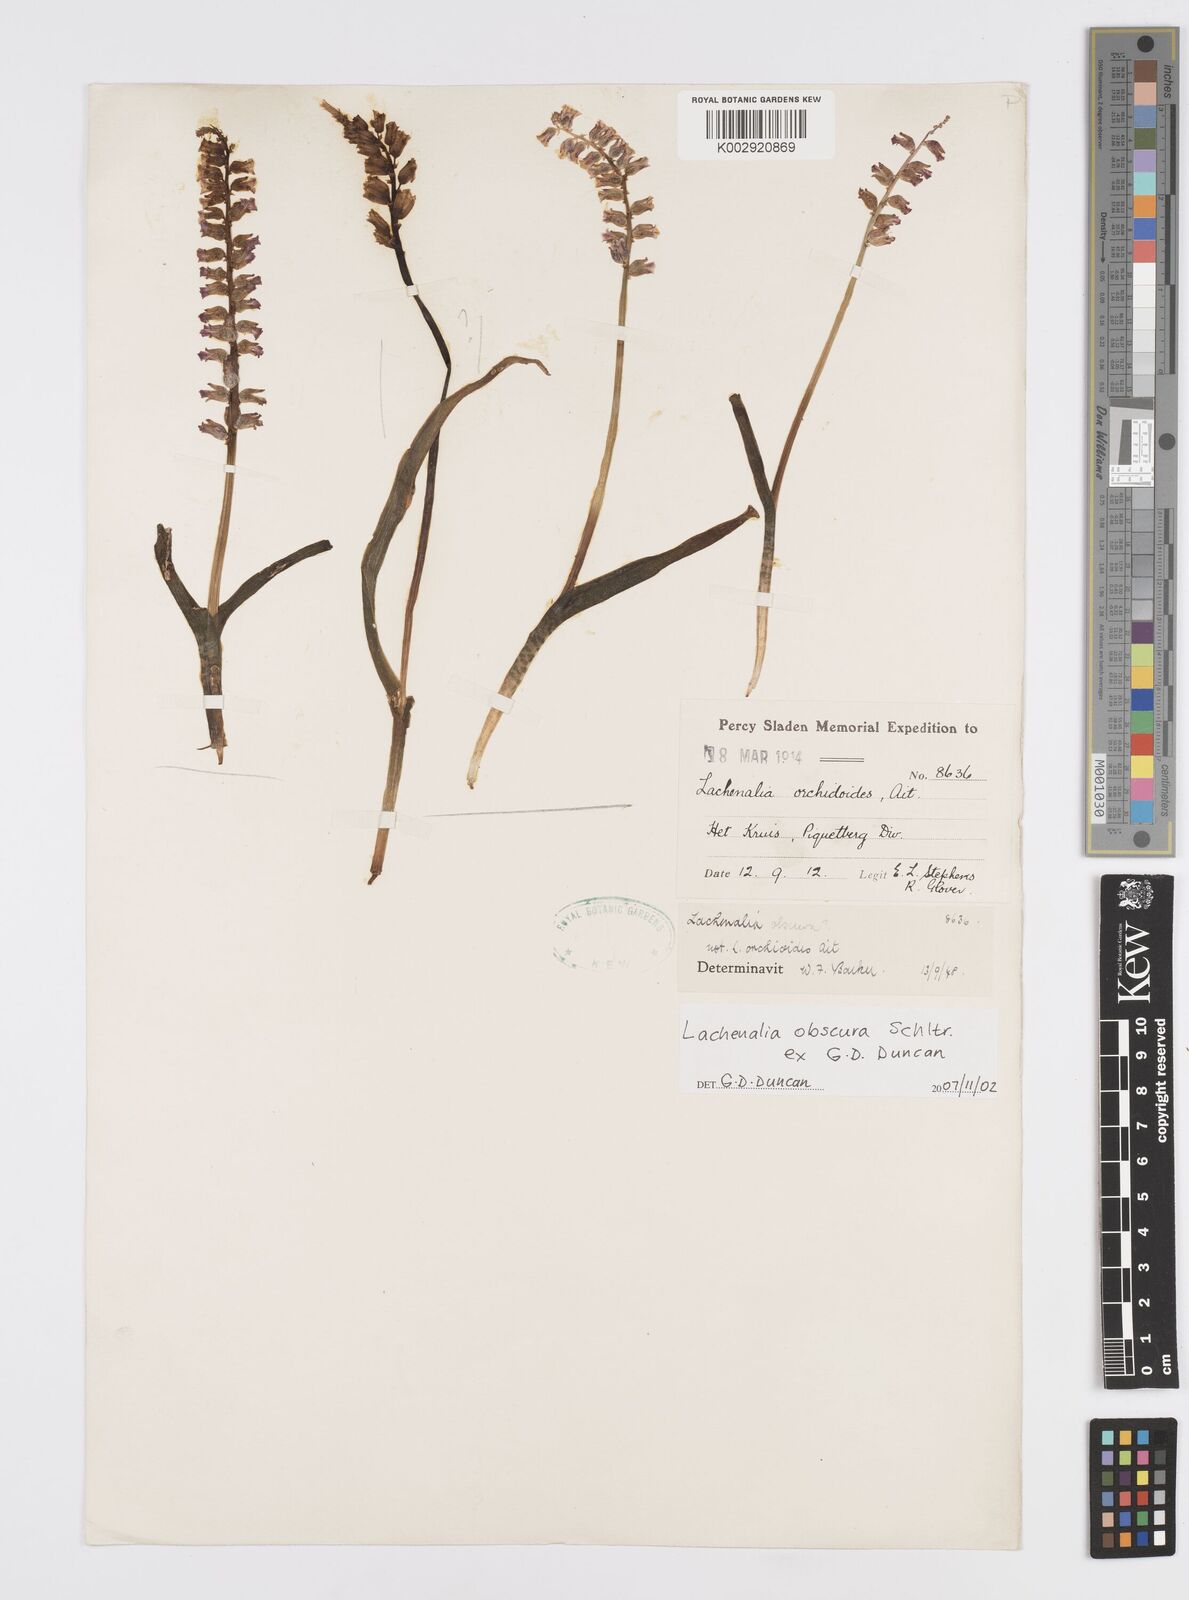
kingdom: Plantae
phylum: Tracheophyta
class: Liliopsida
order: Asparagales
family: Asparagaceae
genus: Lachenalia
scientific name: Lachenalia obscura
